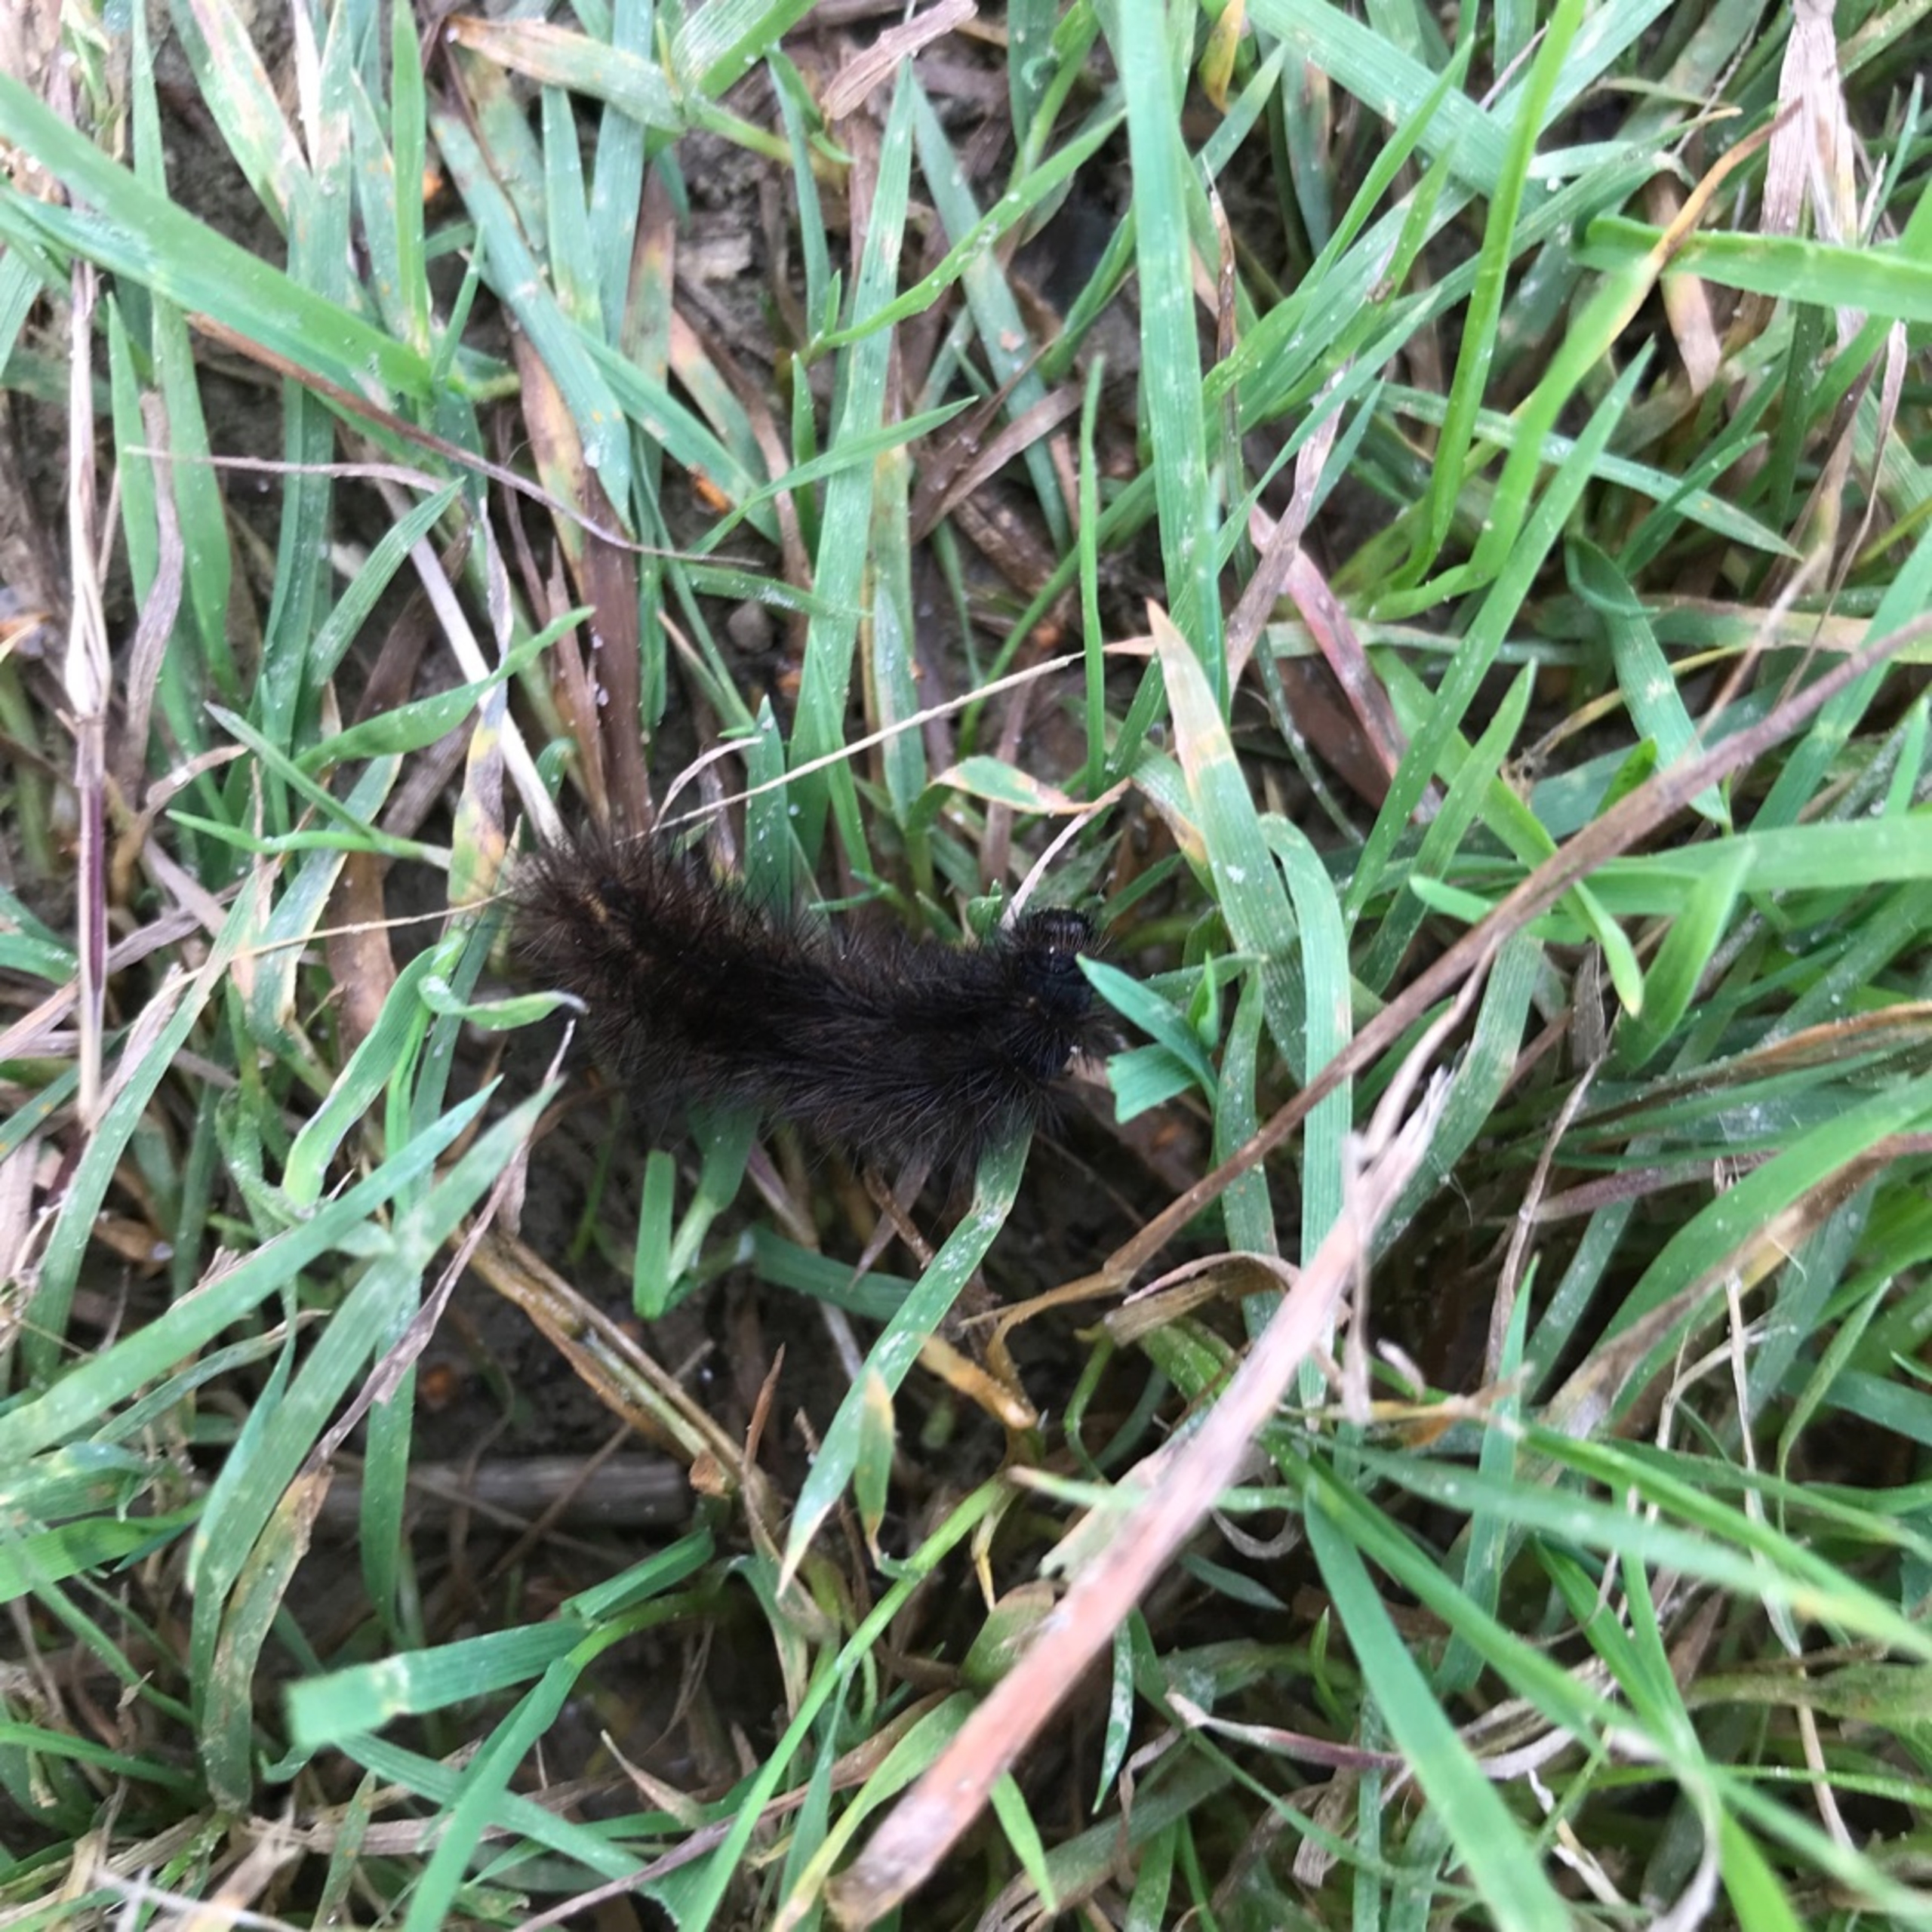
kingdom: Animalia
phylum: Arthropoda
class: Insecta
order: Lepidoptera
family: Erebidae
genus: Phragmatobia
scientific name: Phragmatobia fuliginosa
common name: Kanelbjørn
